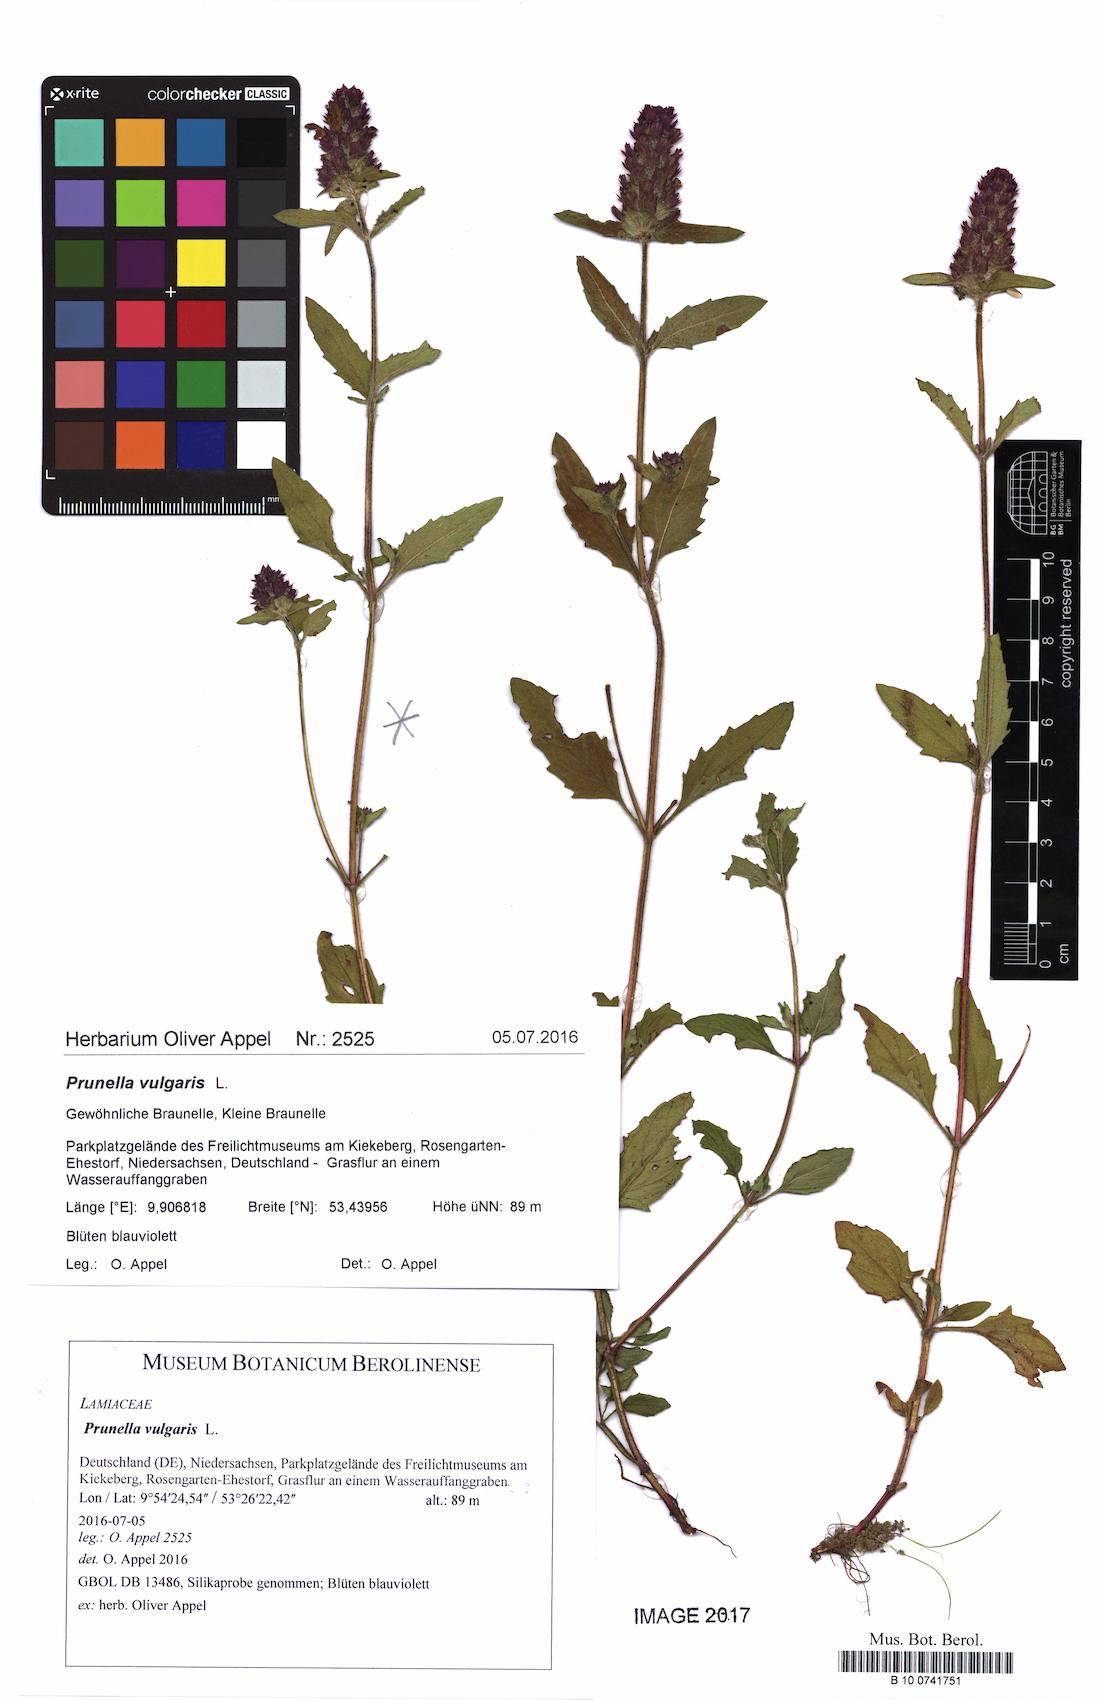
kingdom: Plantae
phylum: Tracheophyta
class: Magnoliopsida
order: Lamiales
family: Lamiaceae
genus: Prunella
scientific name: Prunella vulgaris
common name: Heal-all
